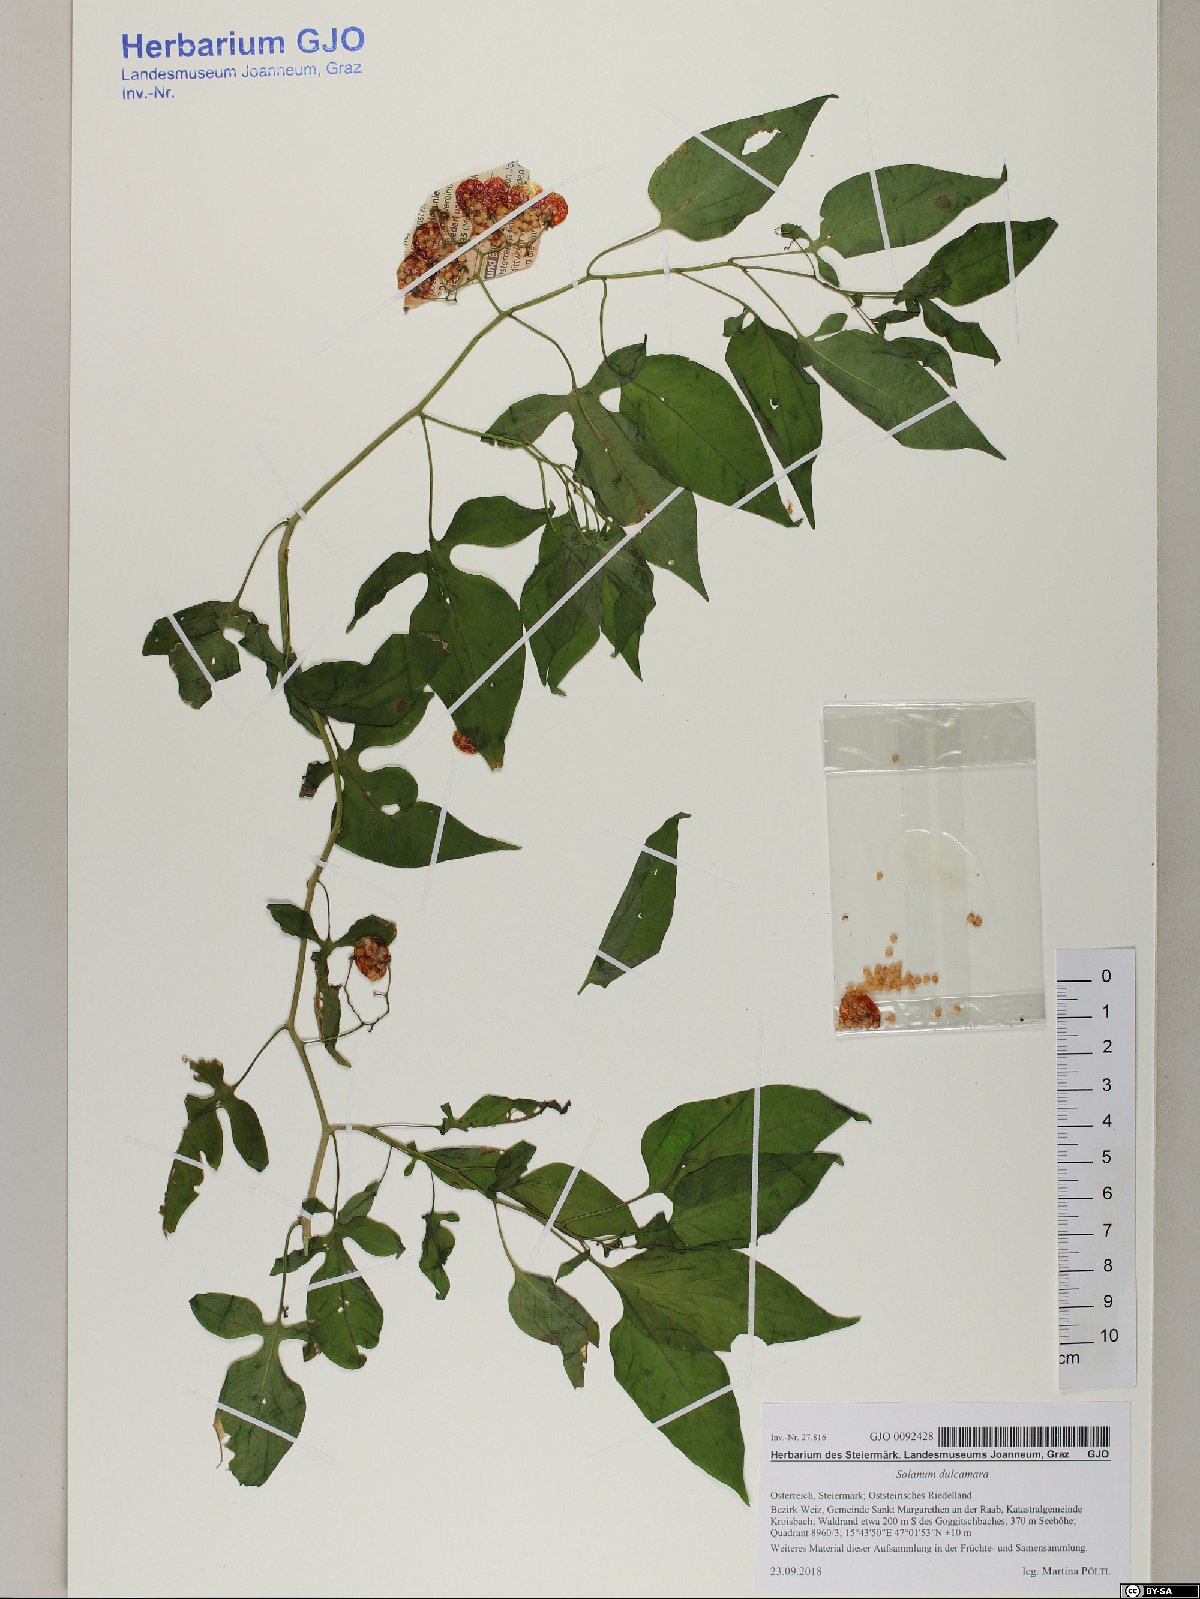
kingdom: Plantae
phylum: Tracheophyta
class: Magnoliopsida
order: Solanales
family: Solanaceae
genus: Solanum
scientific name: Solanum dulcamara
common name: Climbing nightshade
